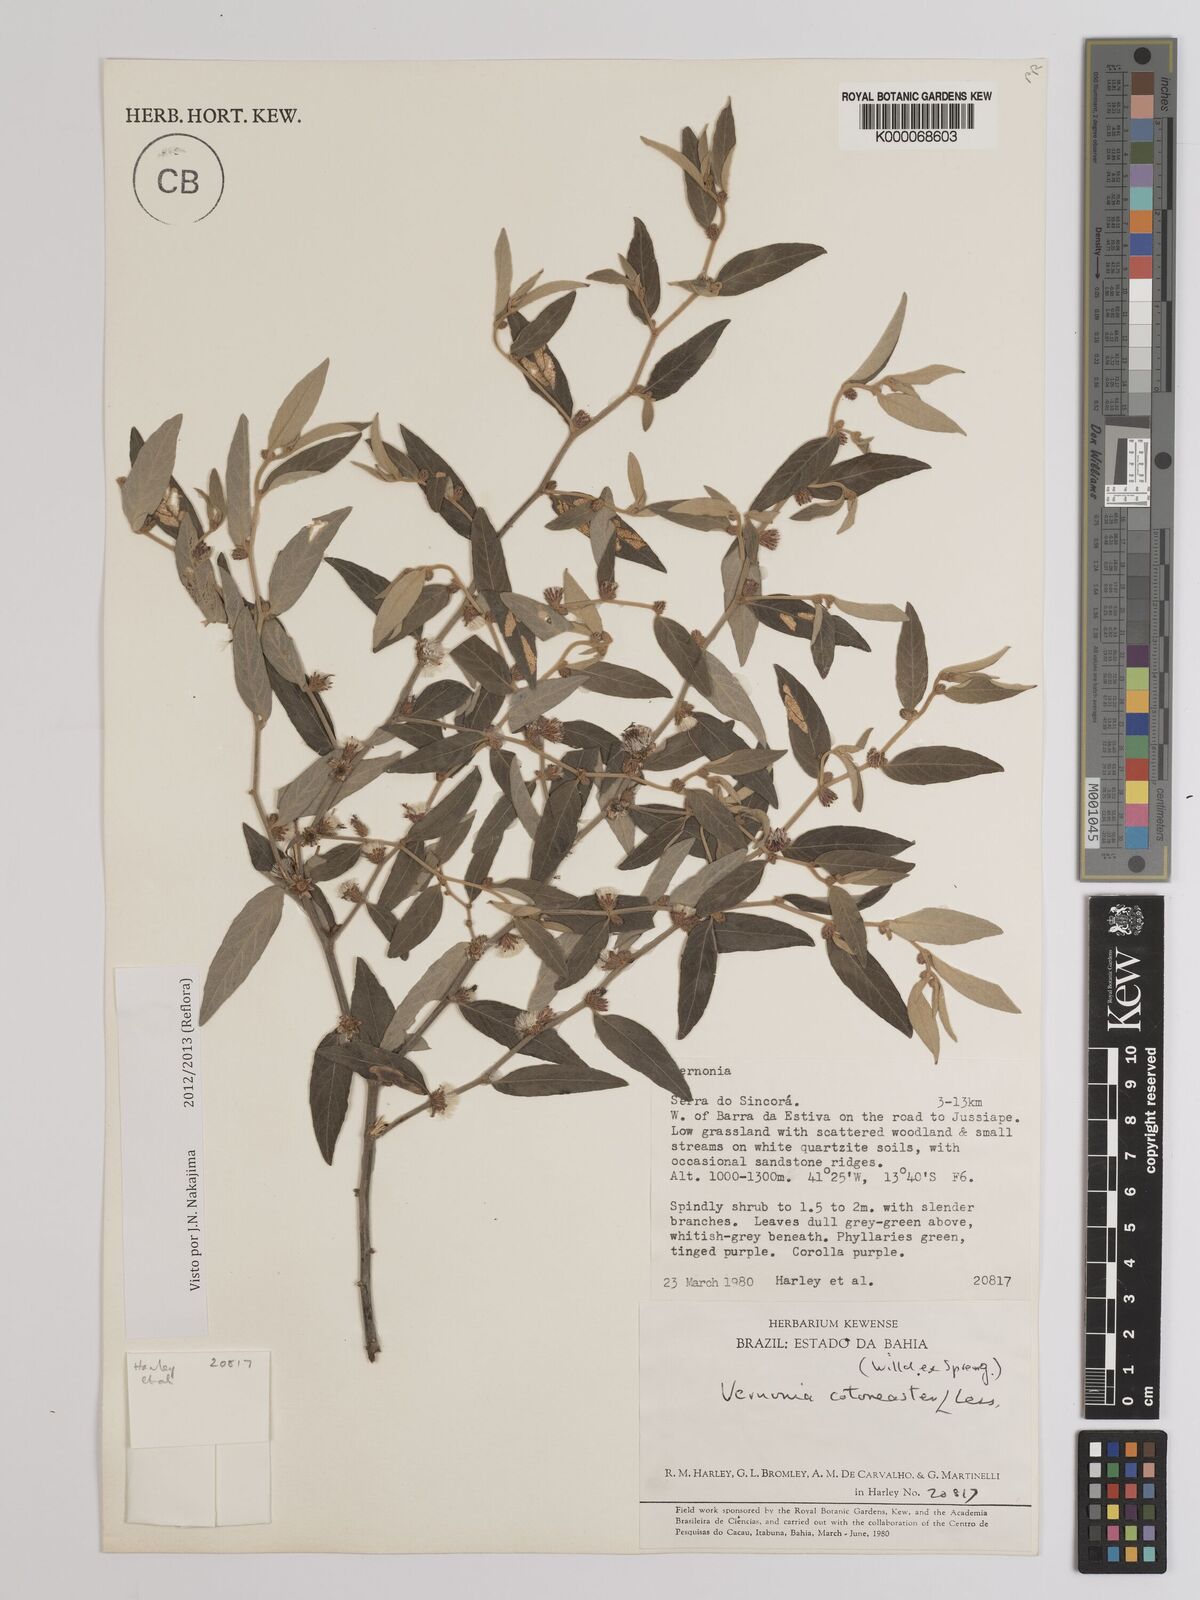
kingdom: Plantae
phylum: Tracheophyta
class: Magnoliopsida
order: Asterales
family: Asteraceae
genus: Lepidaploa
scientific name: Lepidaploa cotoneaster
